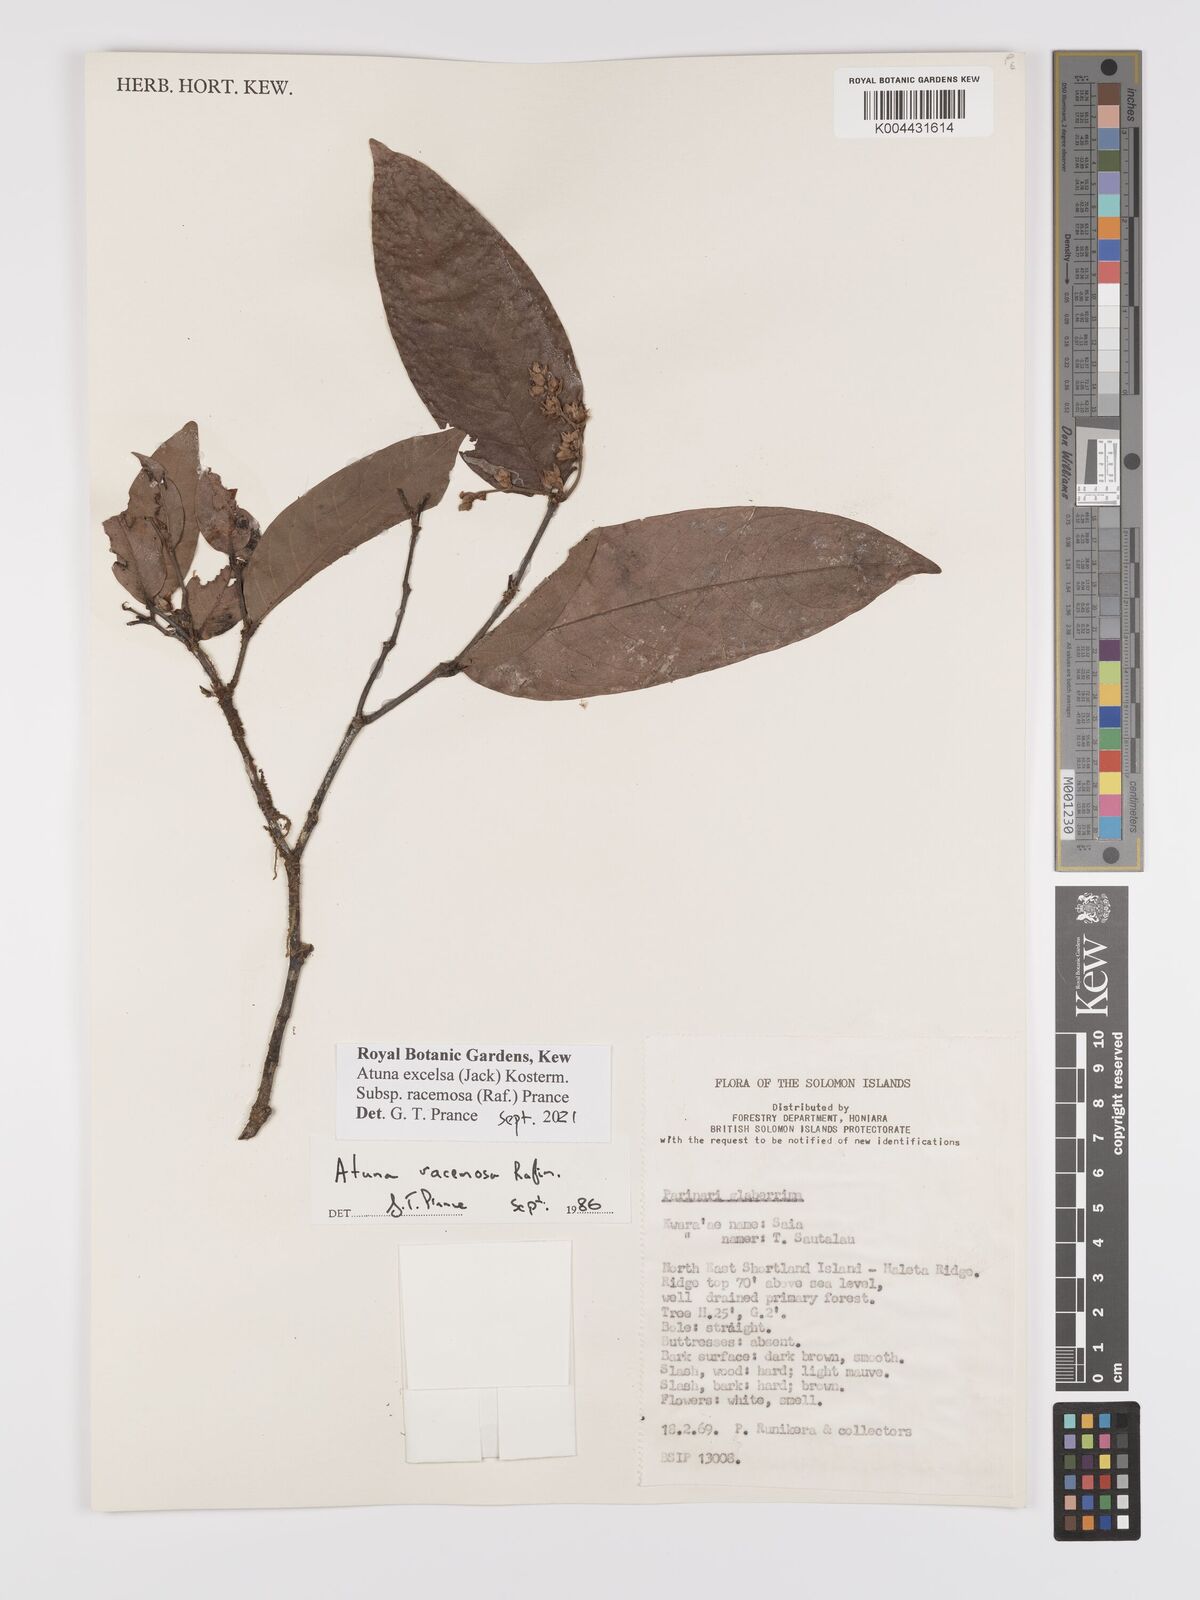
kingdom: Plantae
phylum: Tracheophyta
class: Magnoliopsida
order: Malpighiales
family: Chrysobalanaceae
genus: Atuna
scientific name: Atuna excelsa
